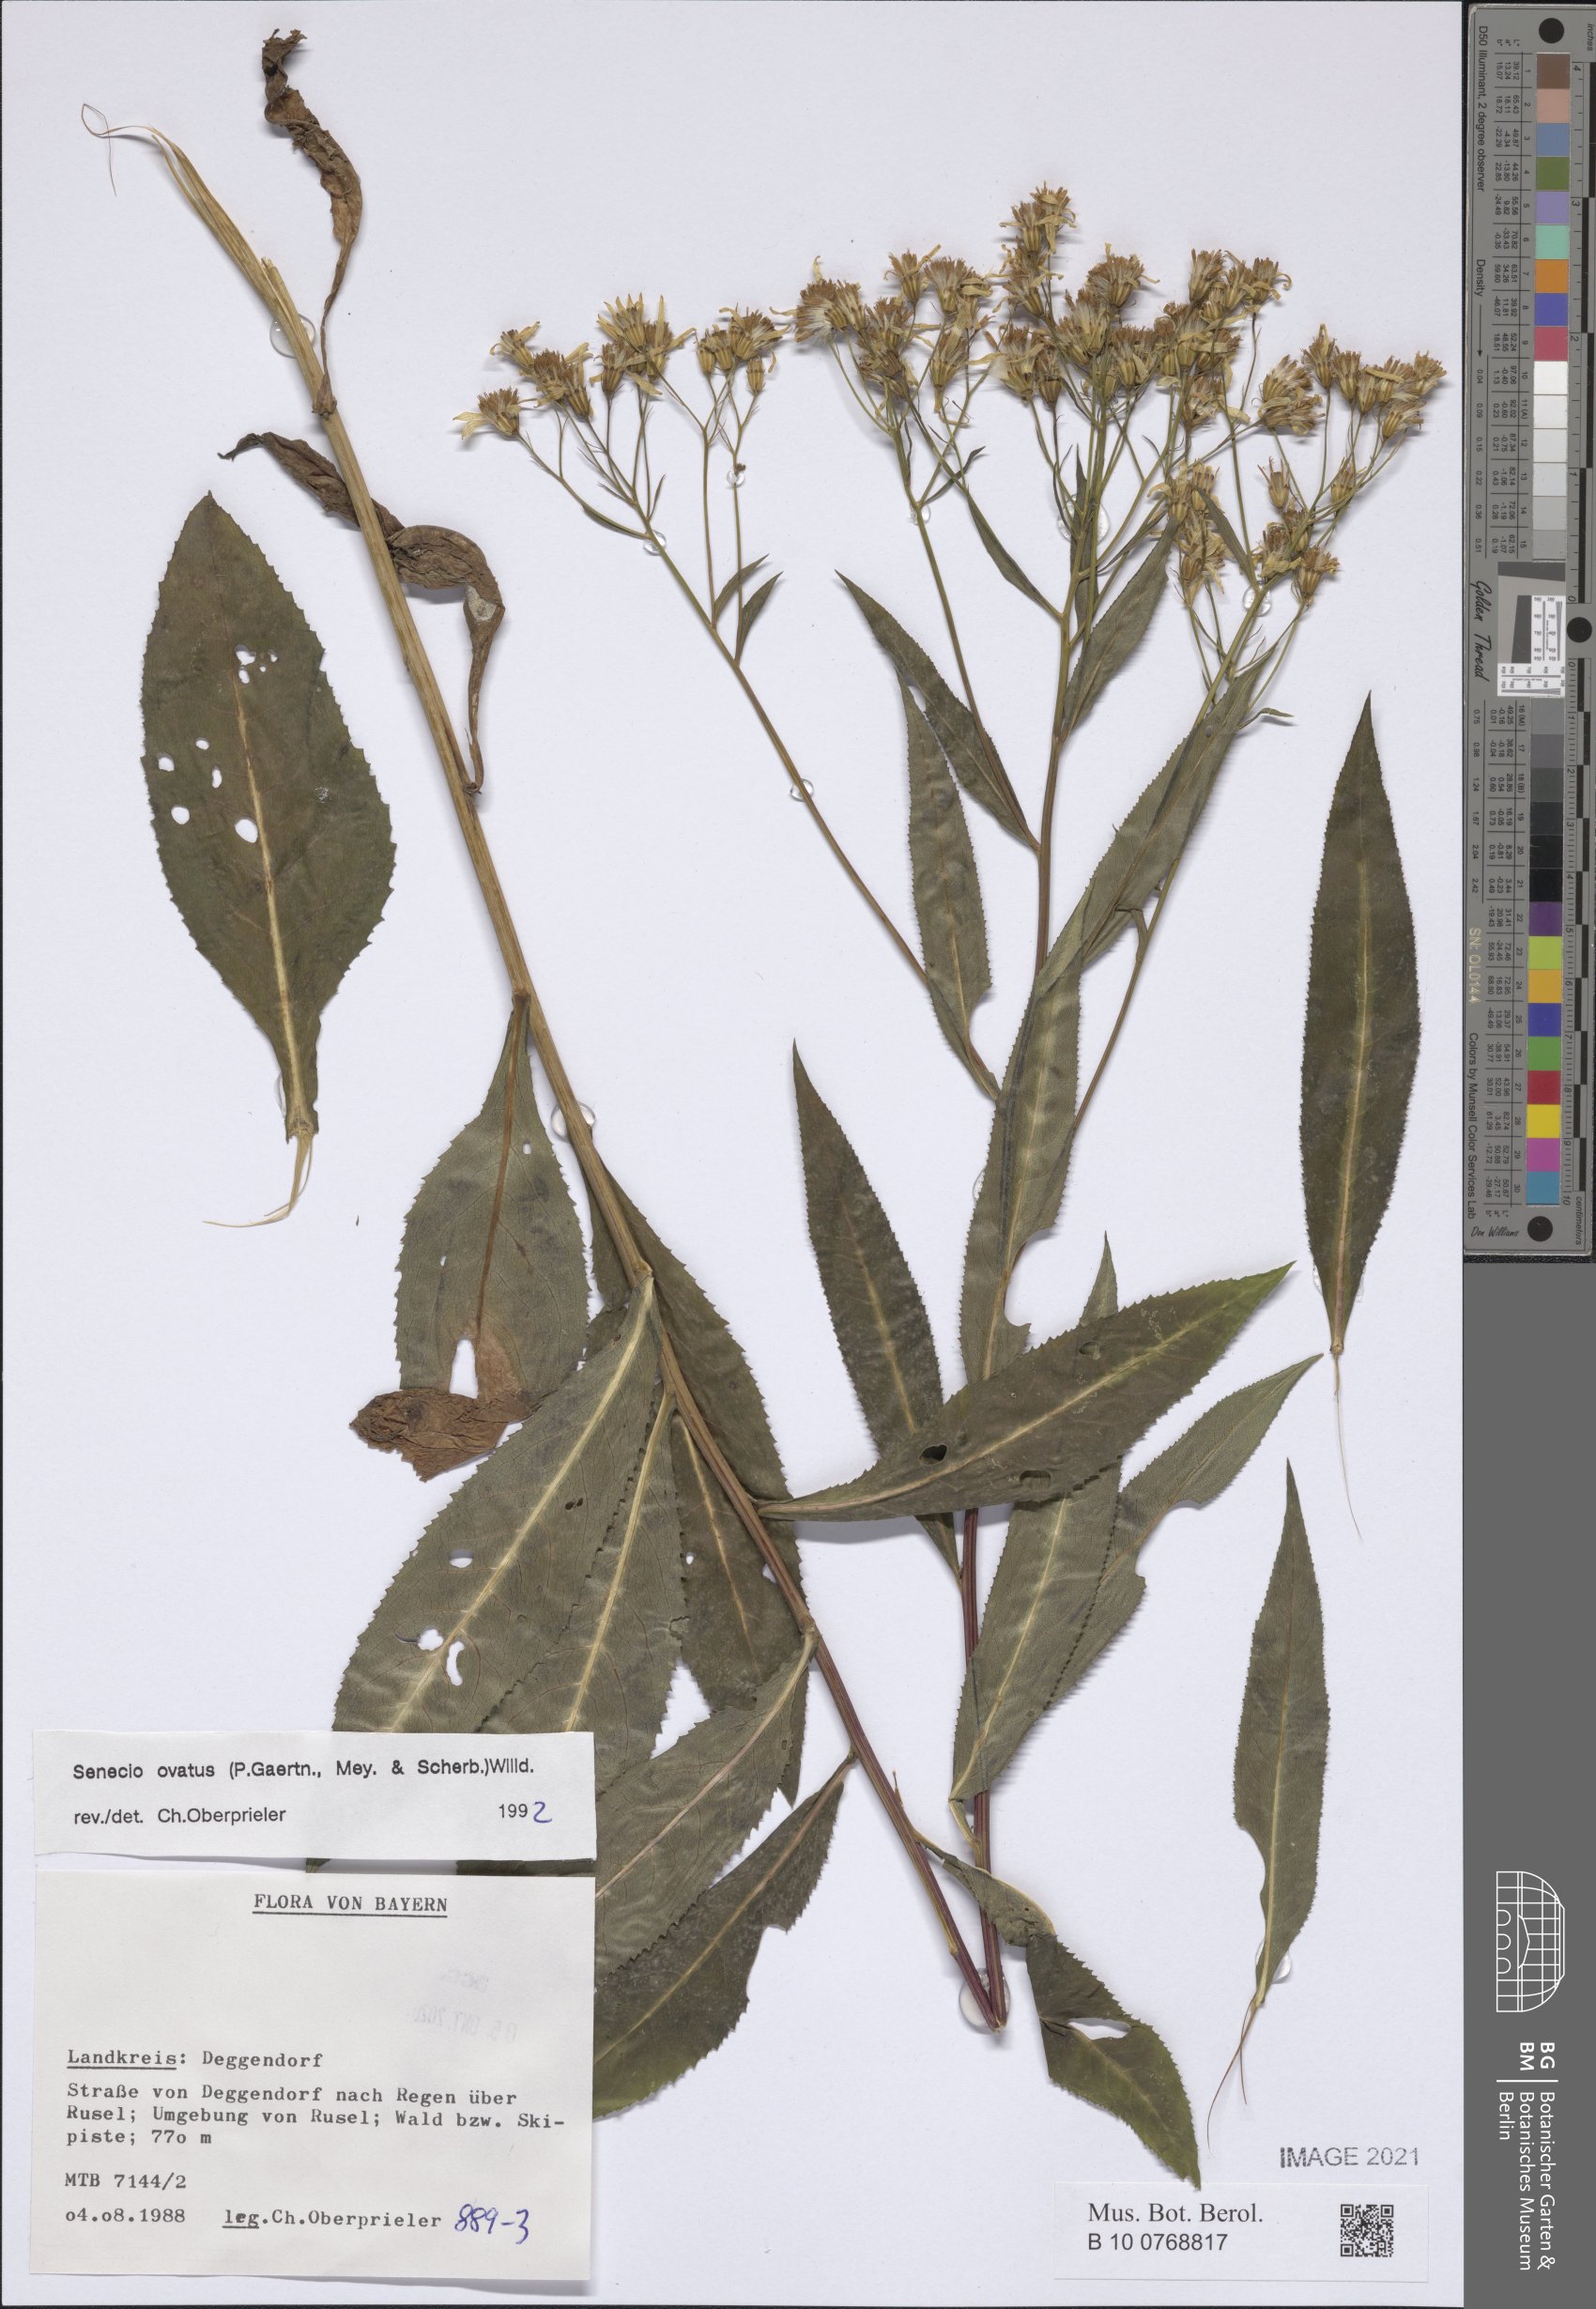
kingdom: Plantae
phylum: Tracheophyta
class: Magnoliopsida
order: Asterales
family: Asteraceae
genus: Senecio
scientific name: Senecio ovatus
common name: Wood ragwort
